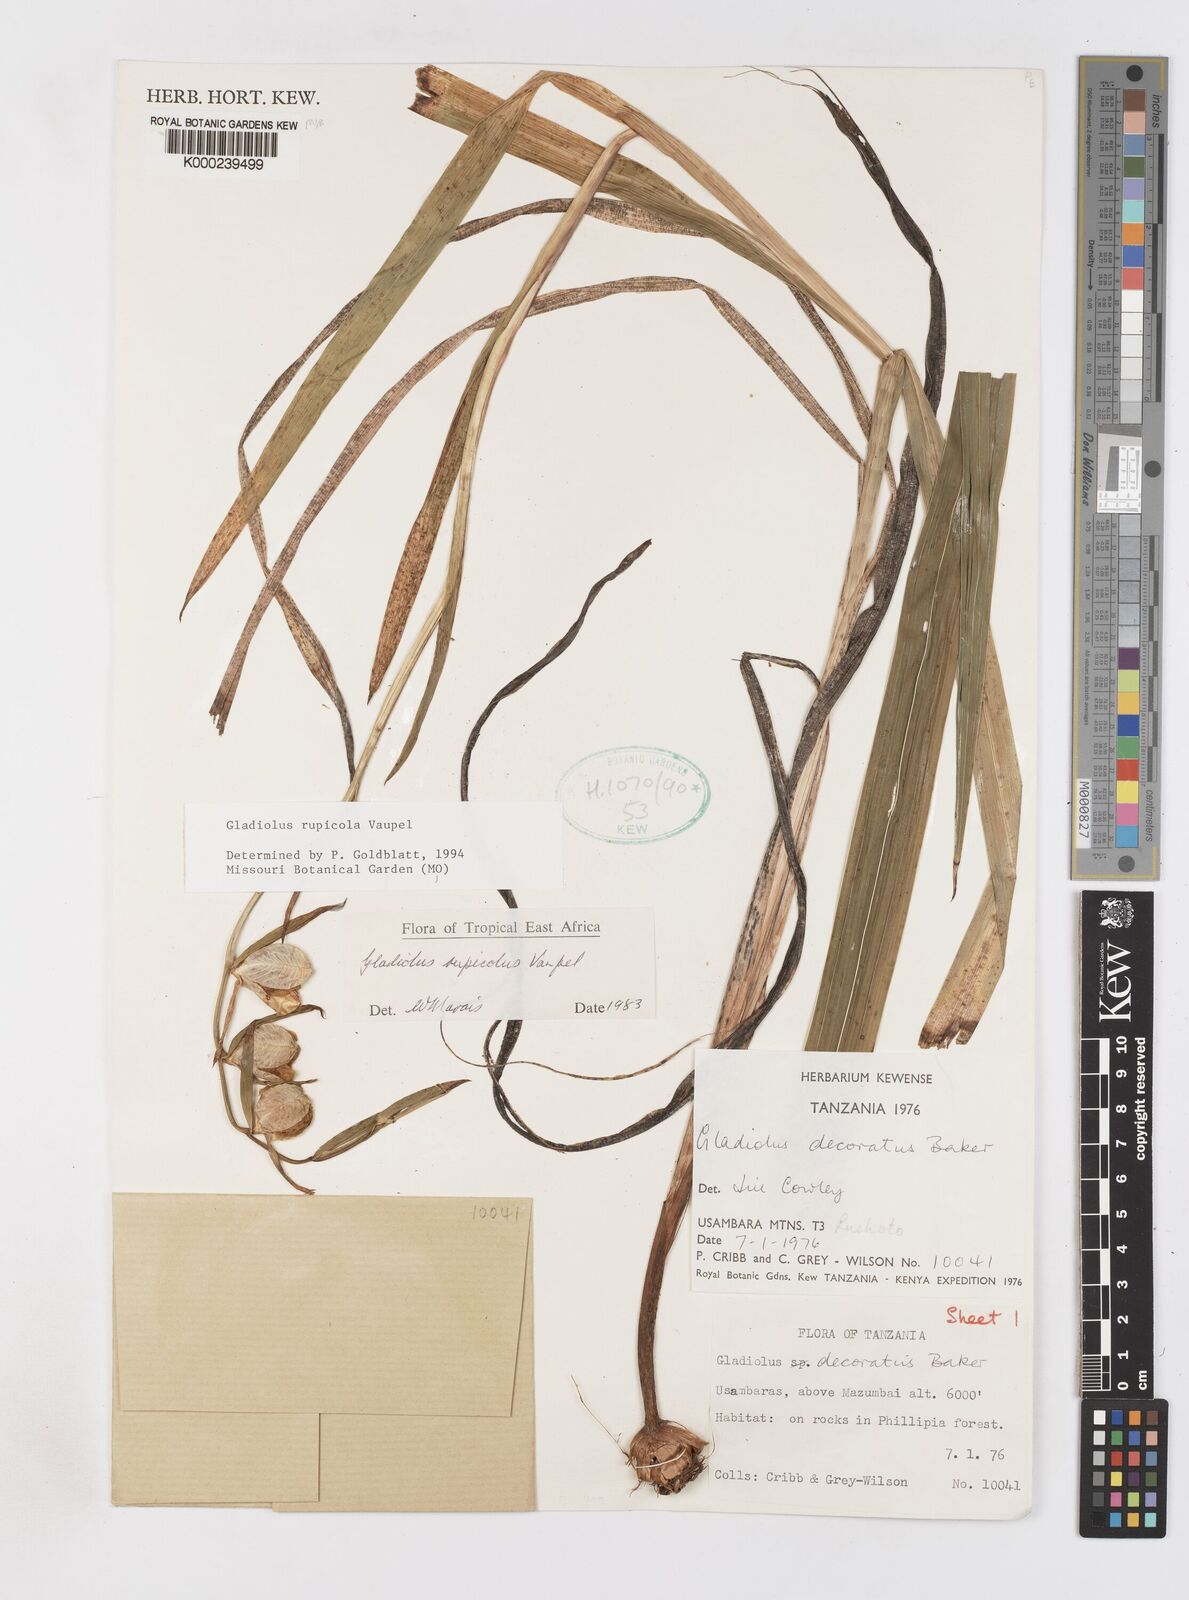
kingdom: Plantae
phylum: Tracheophyta
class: Liliopsida
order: Asparagales
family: Iridaceae
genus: Gladiolus
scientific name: Gladiolus rupicola
